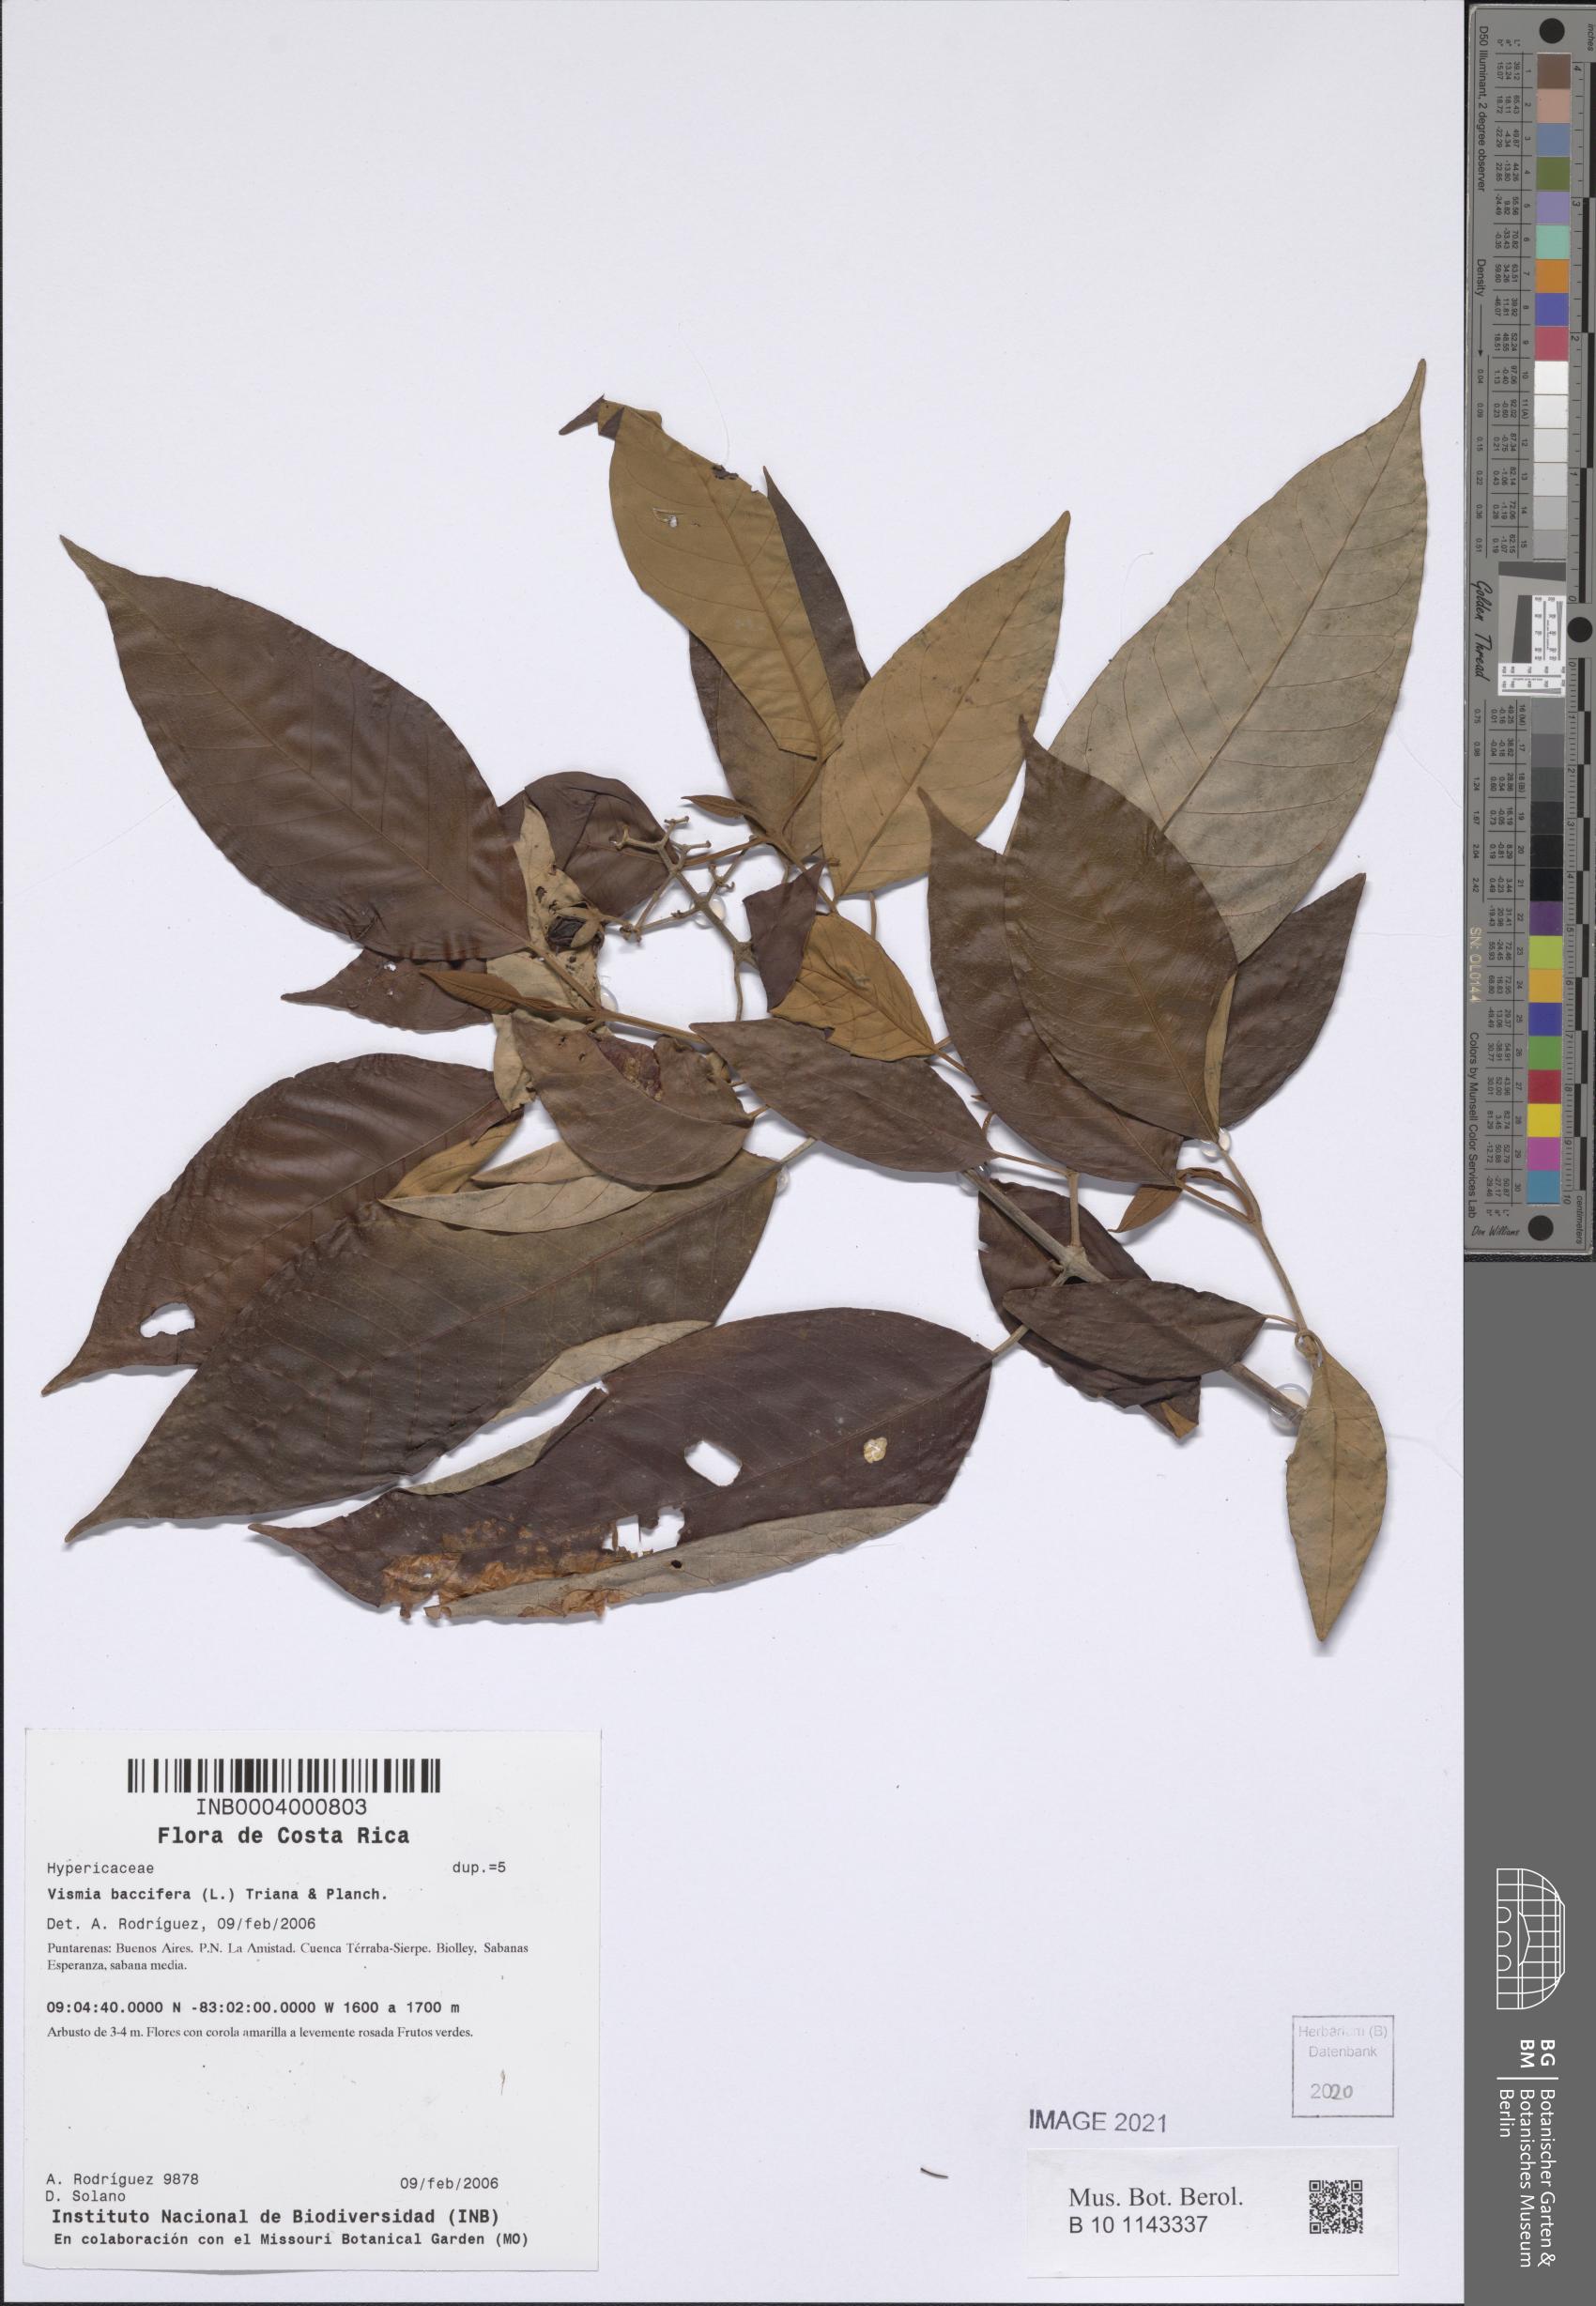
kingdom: Plantae
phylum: Tracheophyta
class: Magnoliopsida
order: Malpighiales
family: Hypericaceae
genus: Vismia
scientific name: Vismia baccifera
